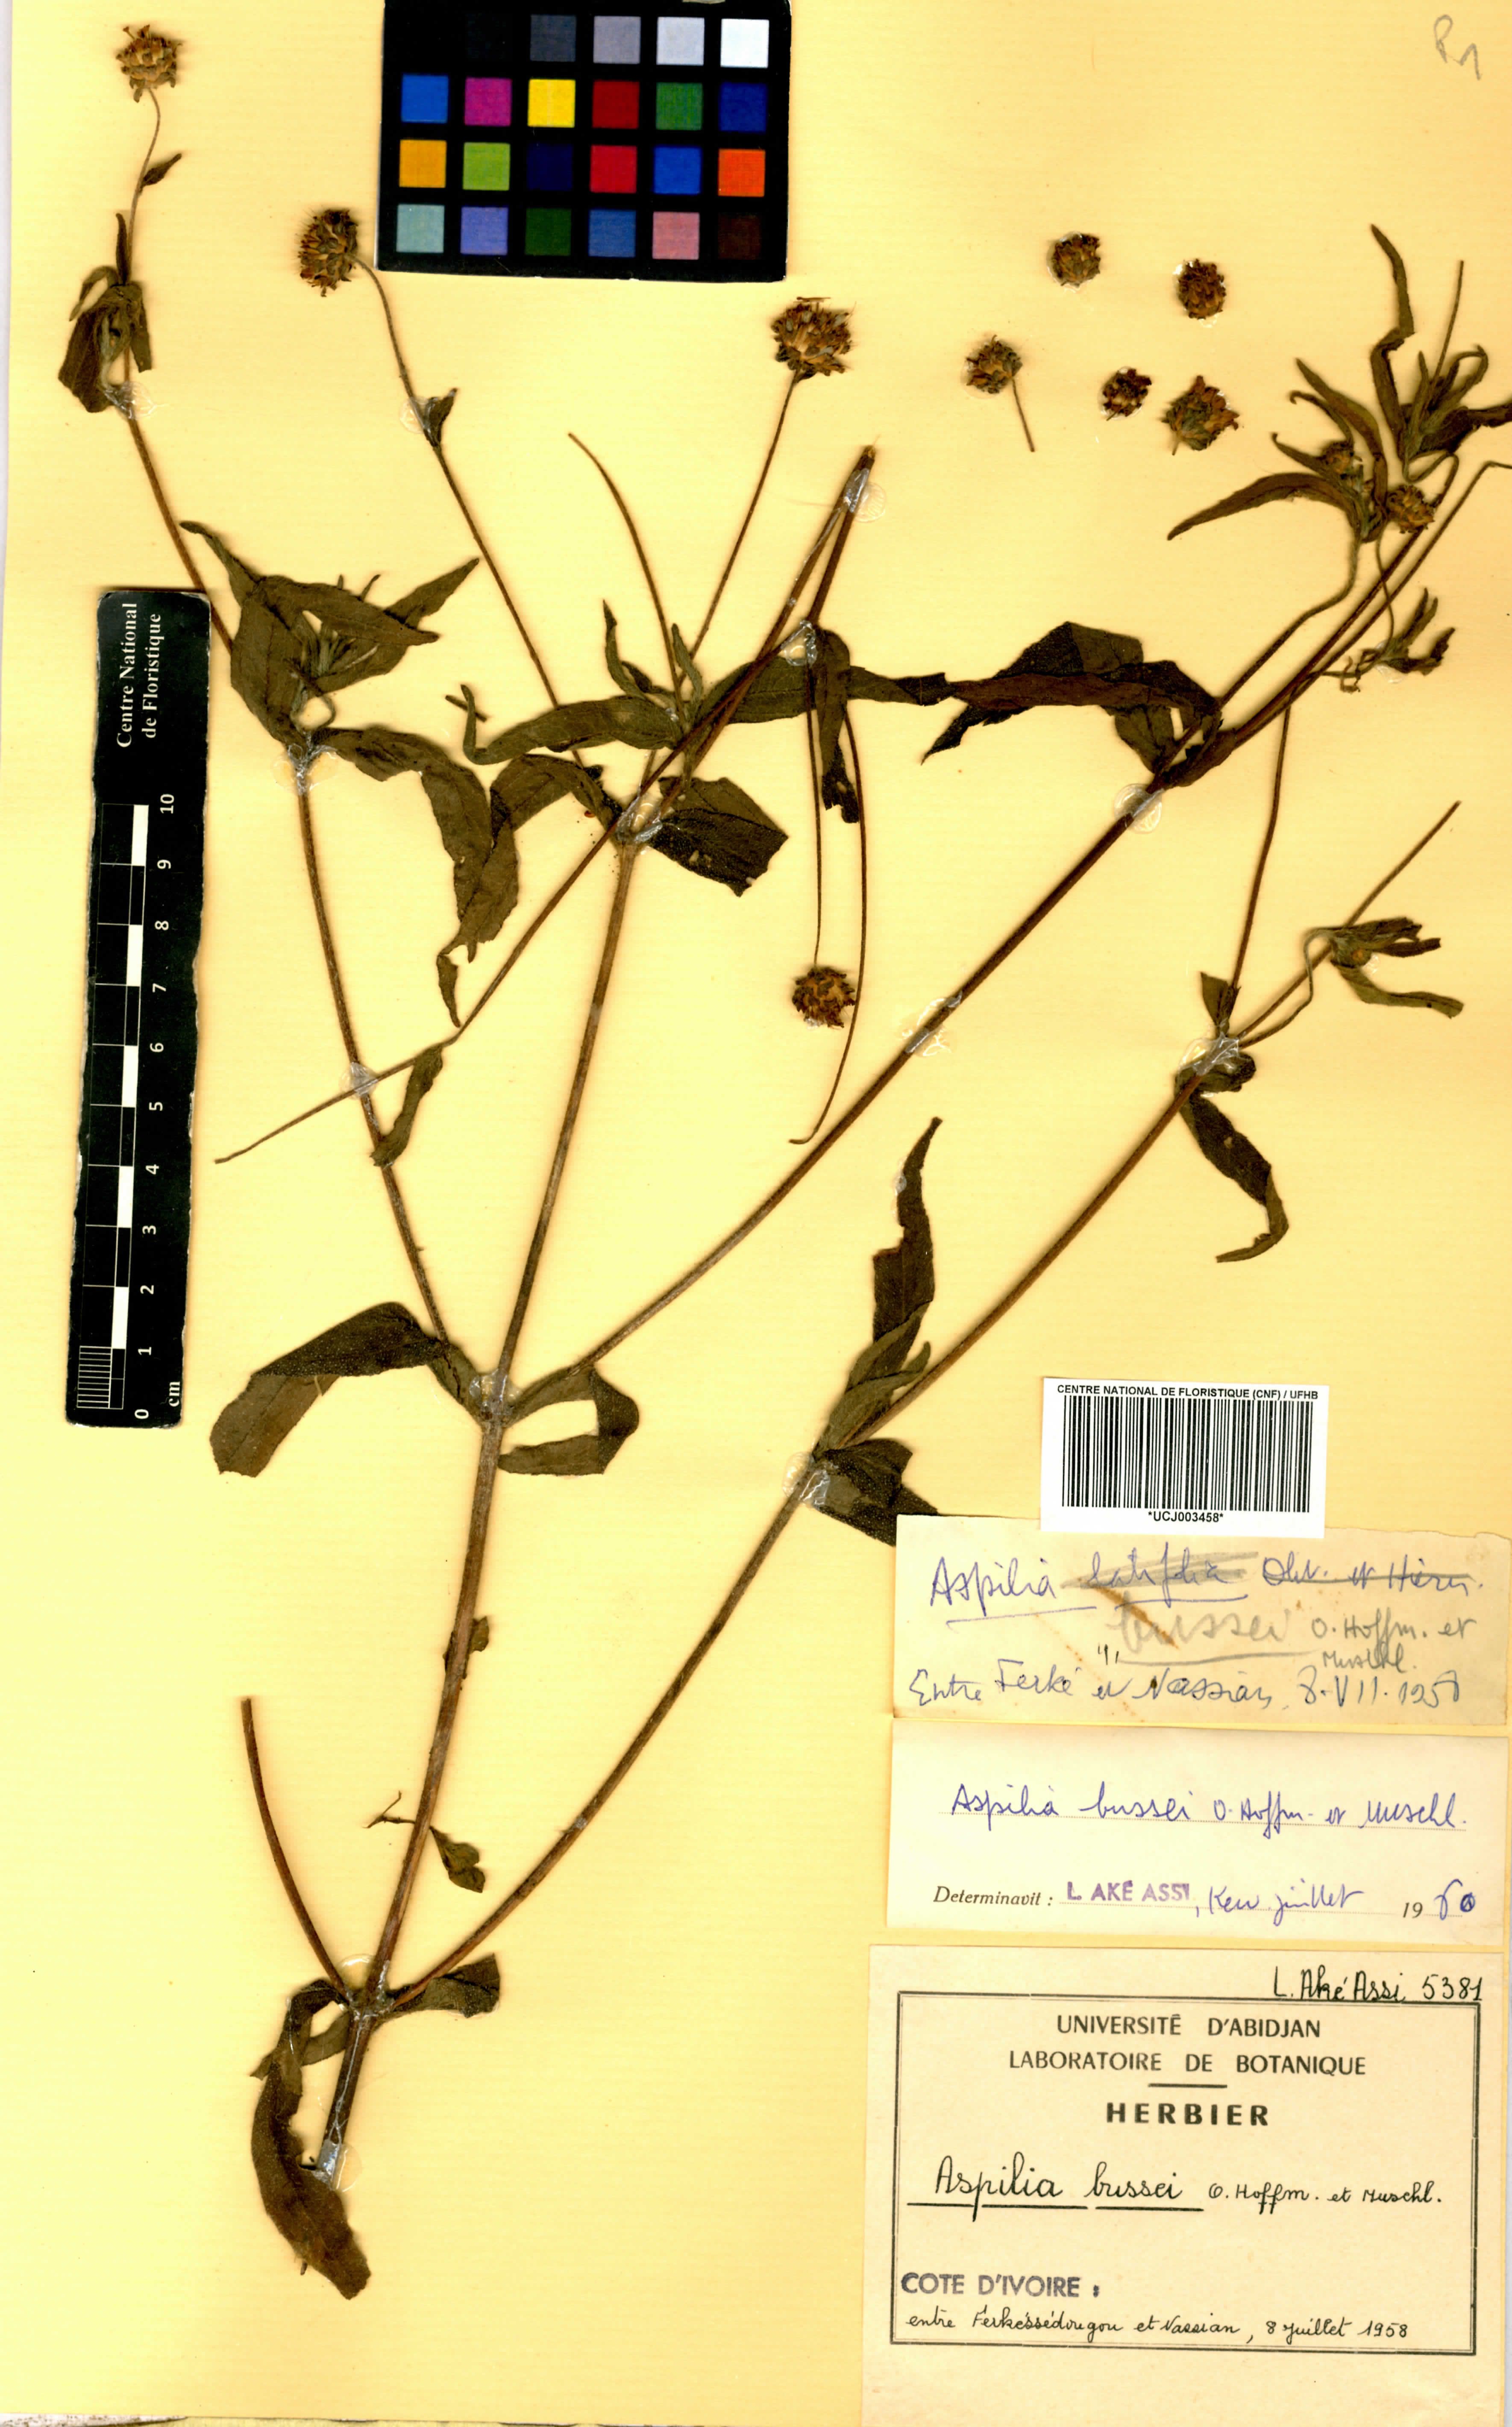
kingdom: Plantae
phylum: Tracheophyta
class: Magnoliopsida
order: Asterales
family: Asteraceae
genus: Aspilia
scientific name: Aspilia bussei
